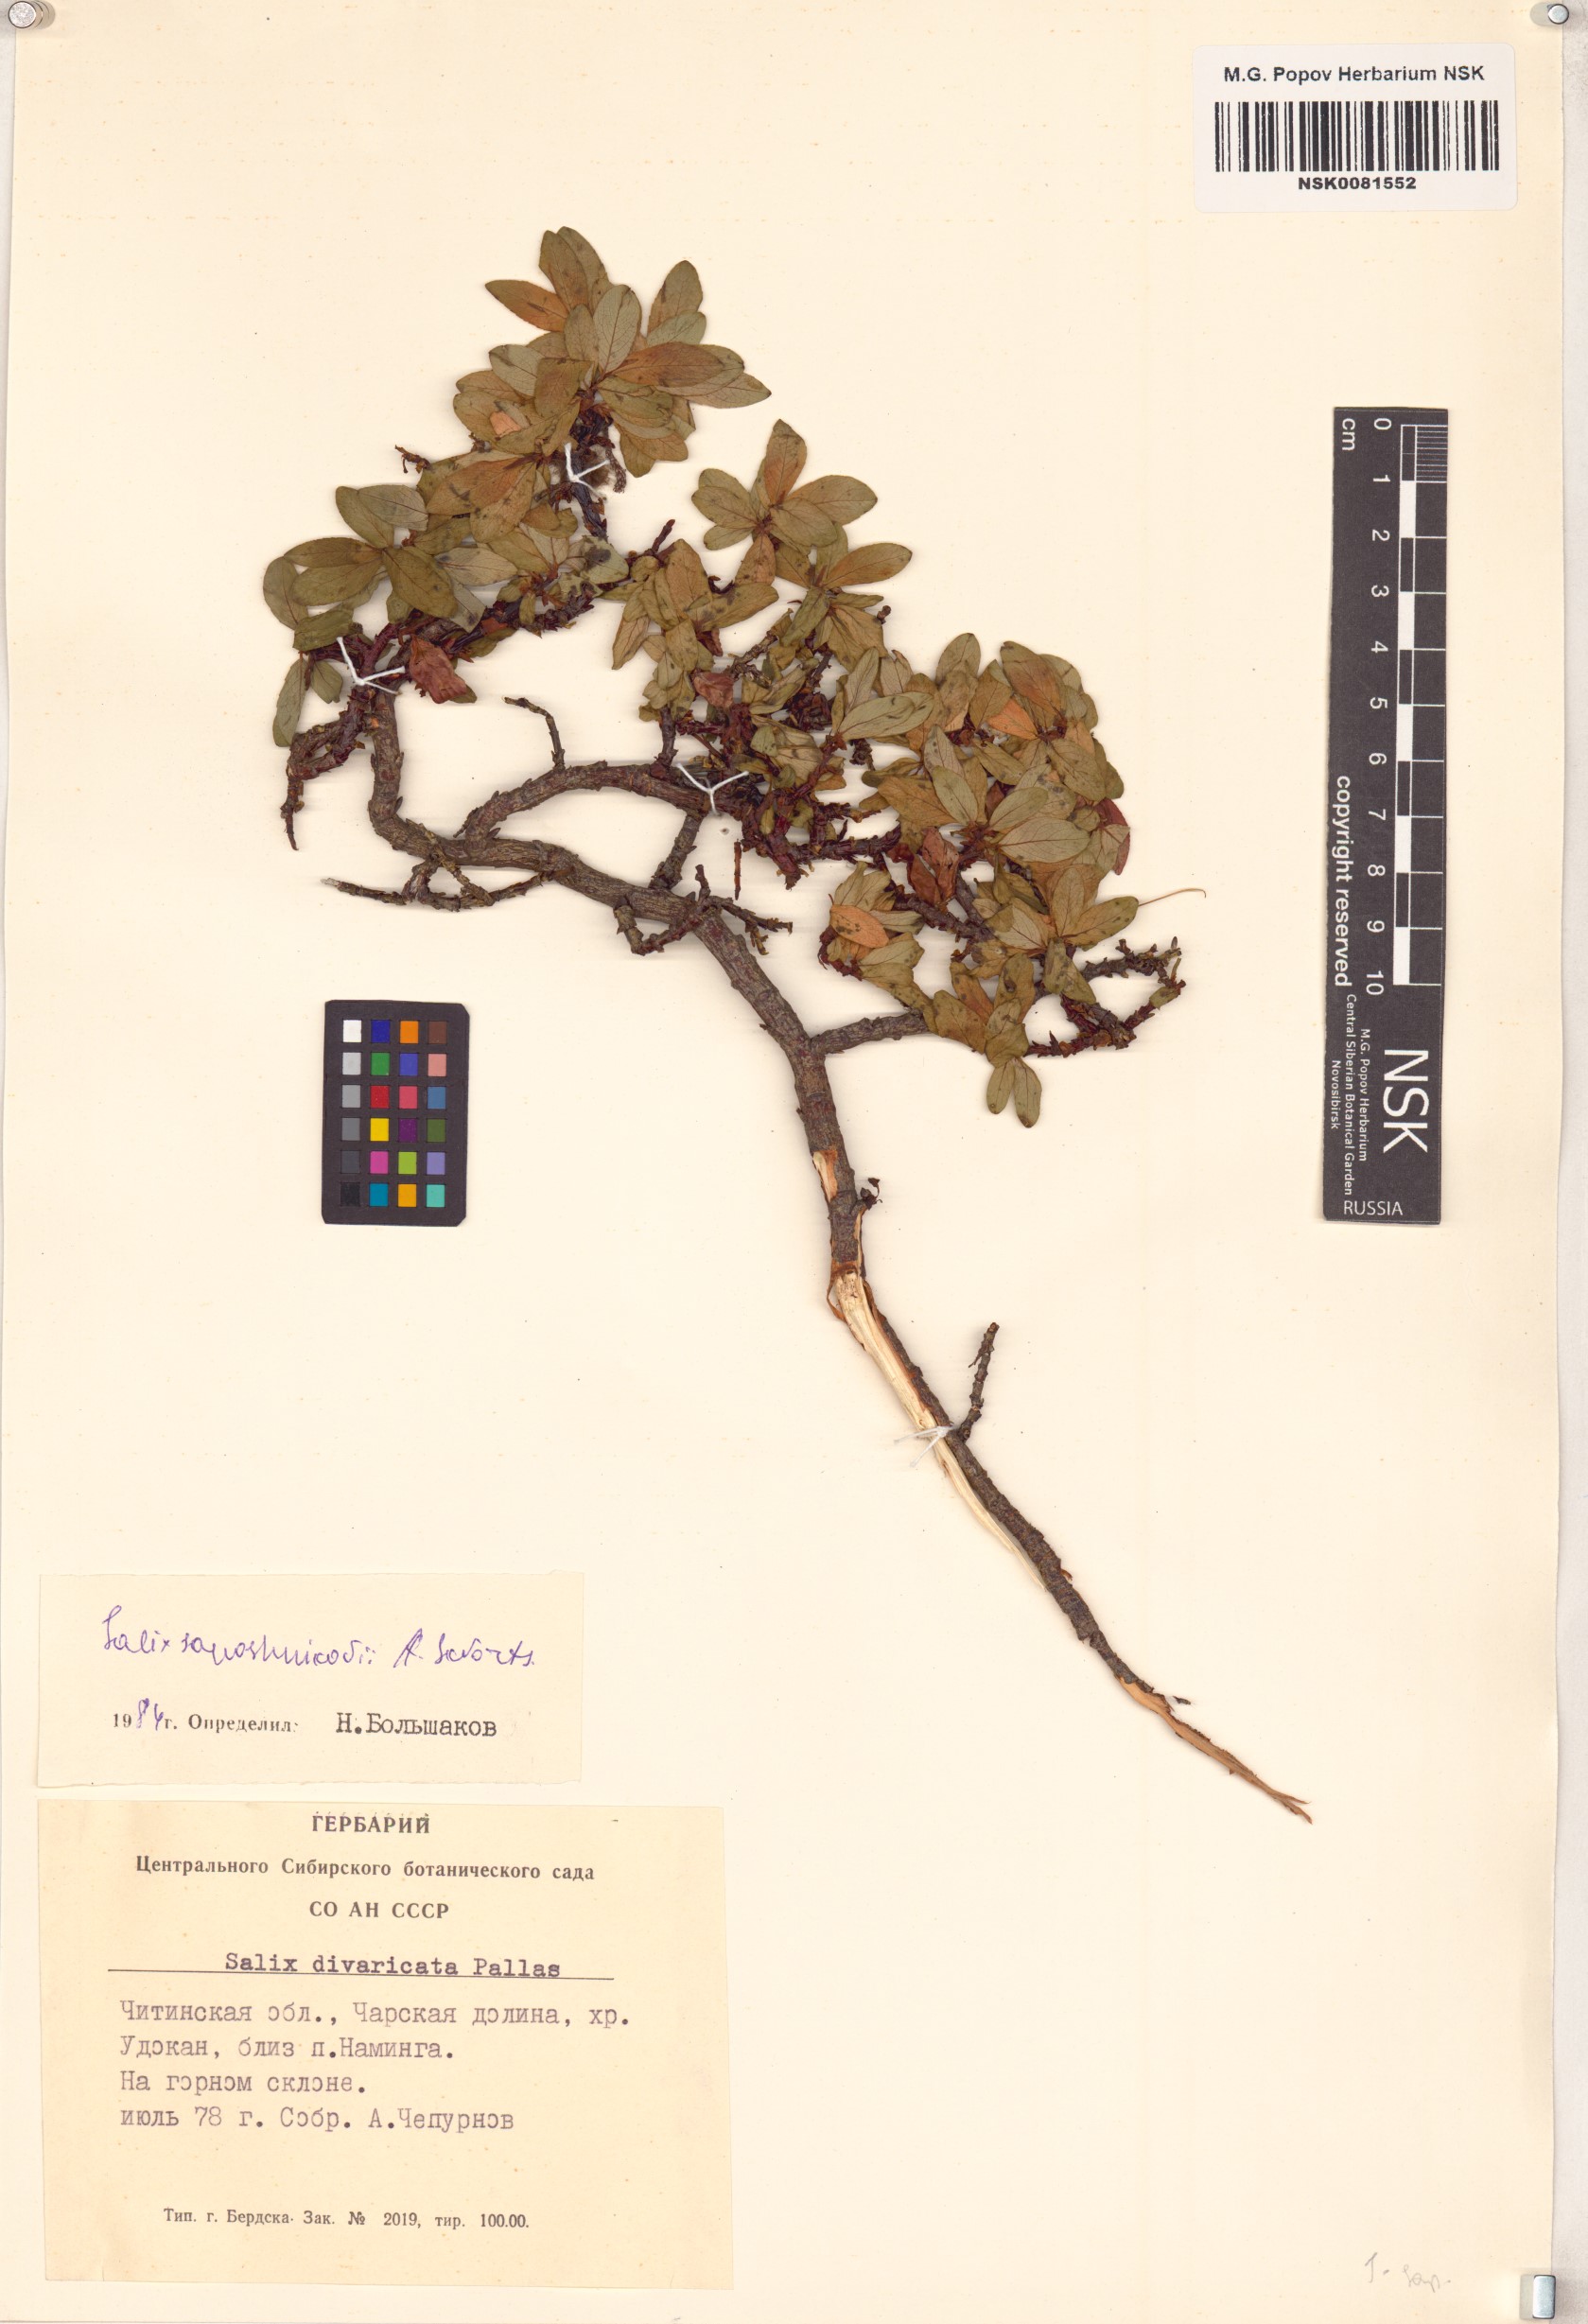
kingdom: Plantae
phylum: Tracheophyta
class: Magnoliopsida
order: Malpighiales
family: Salicaceae
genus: Salix
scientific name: Salix saposhnikovii
